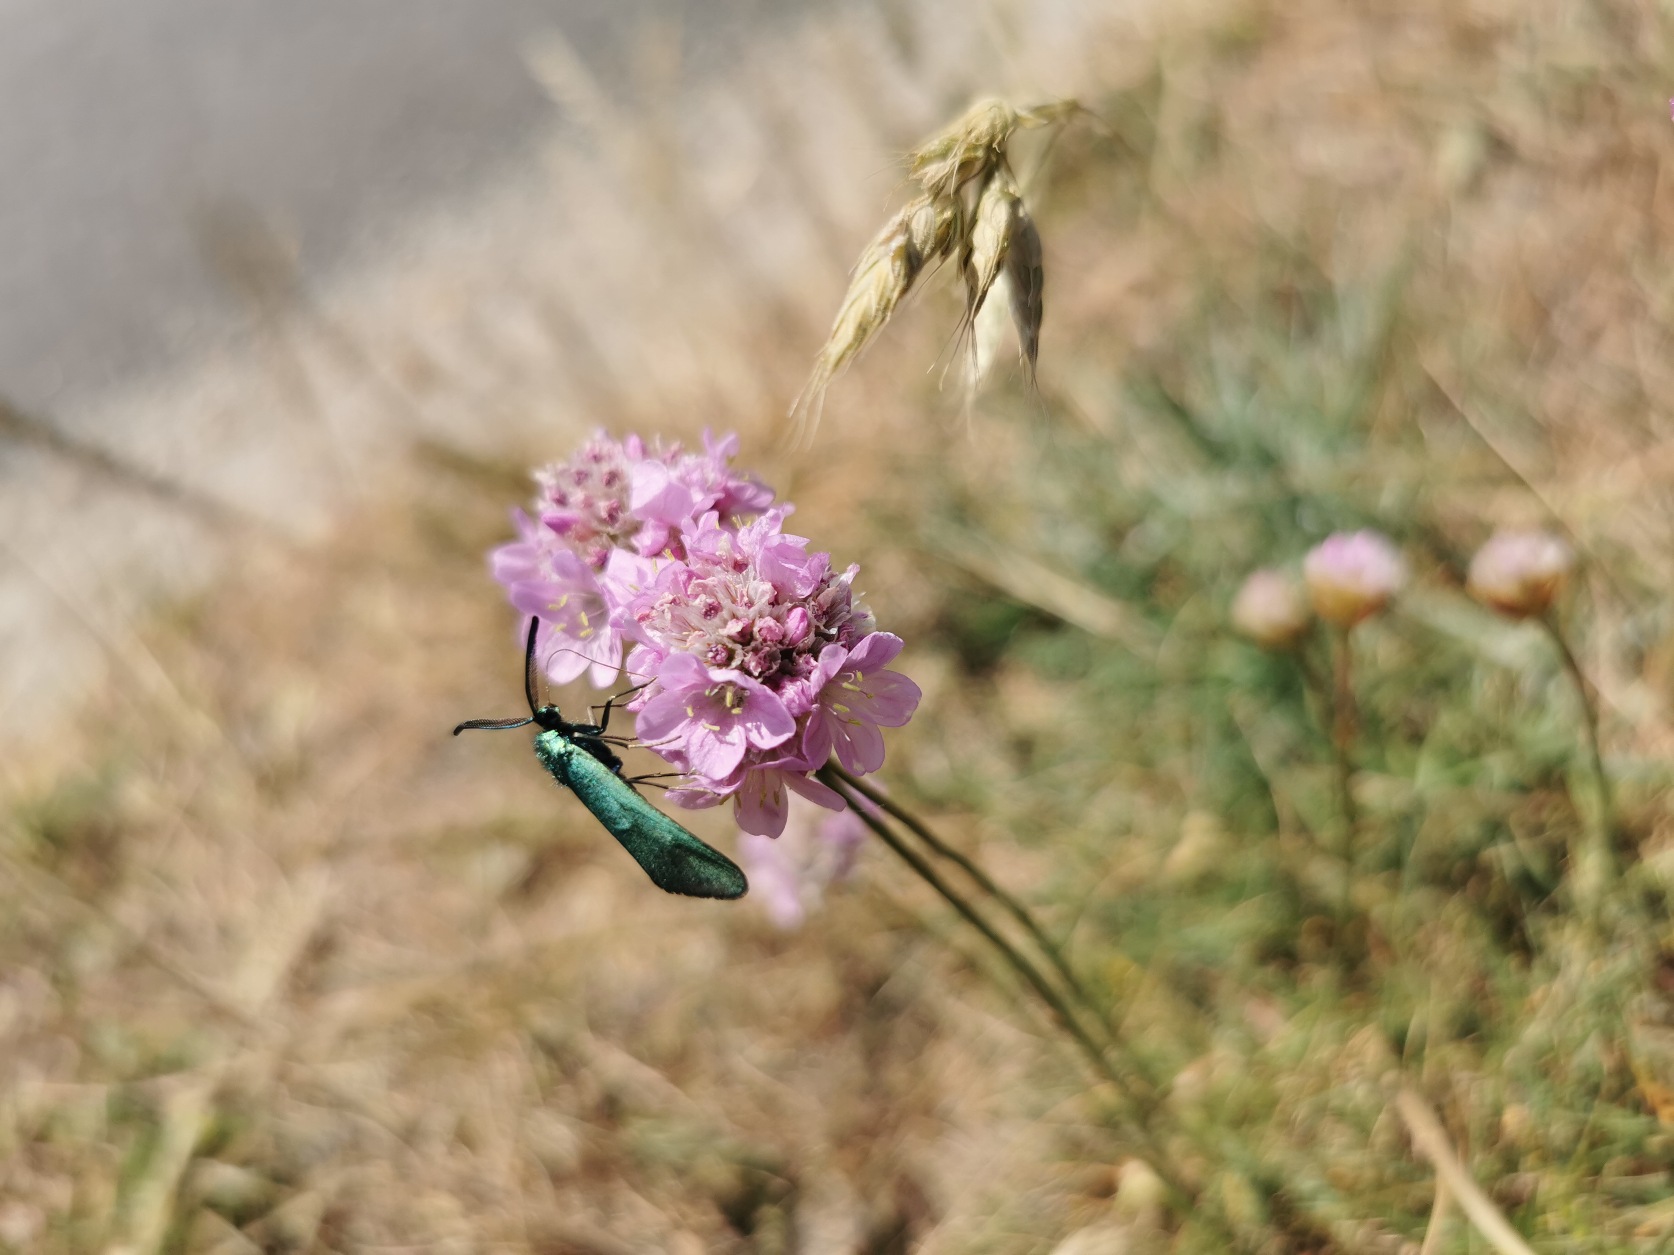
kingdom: Animalia
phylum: Arthropoda
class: Insecta
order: Lepidoptera
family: Zygaenidae
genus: Adscita
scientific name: Adscita statices
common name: Metalvinge
